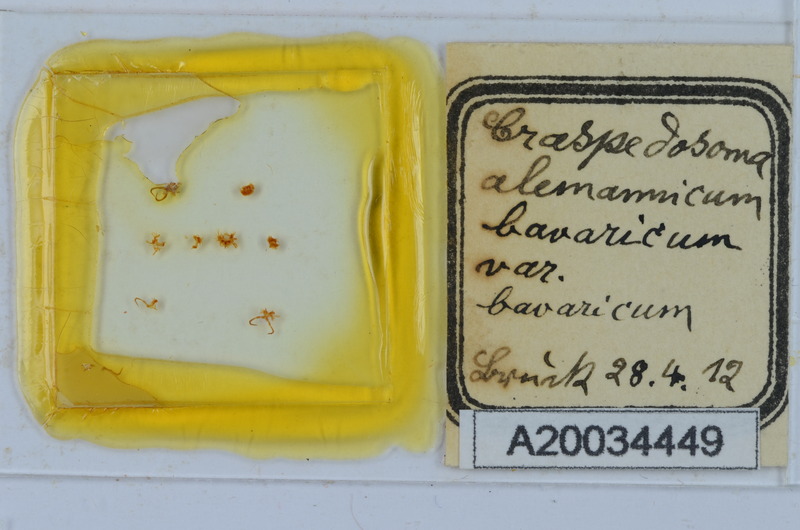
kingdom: Animalia
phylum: Arthropoda
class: Diplopoda
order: Chordeumatida
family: Craspedosomatidae
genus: Craspedosoma
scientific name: Craspedosoma rawlinsii
